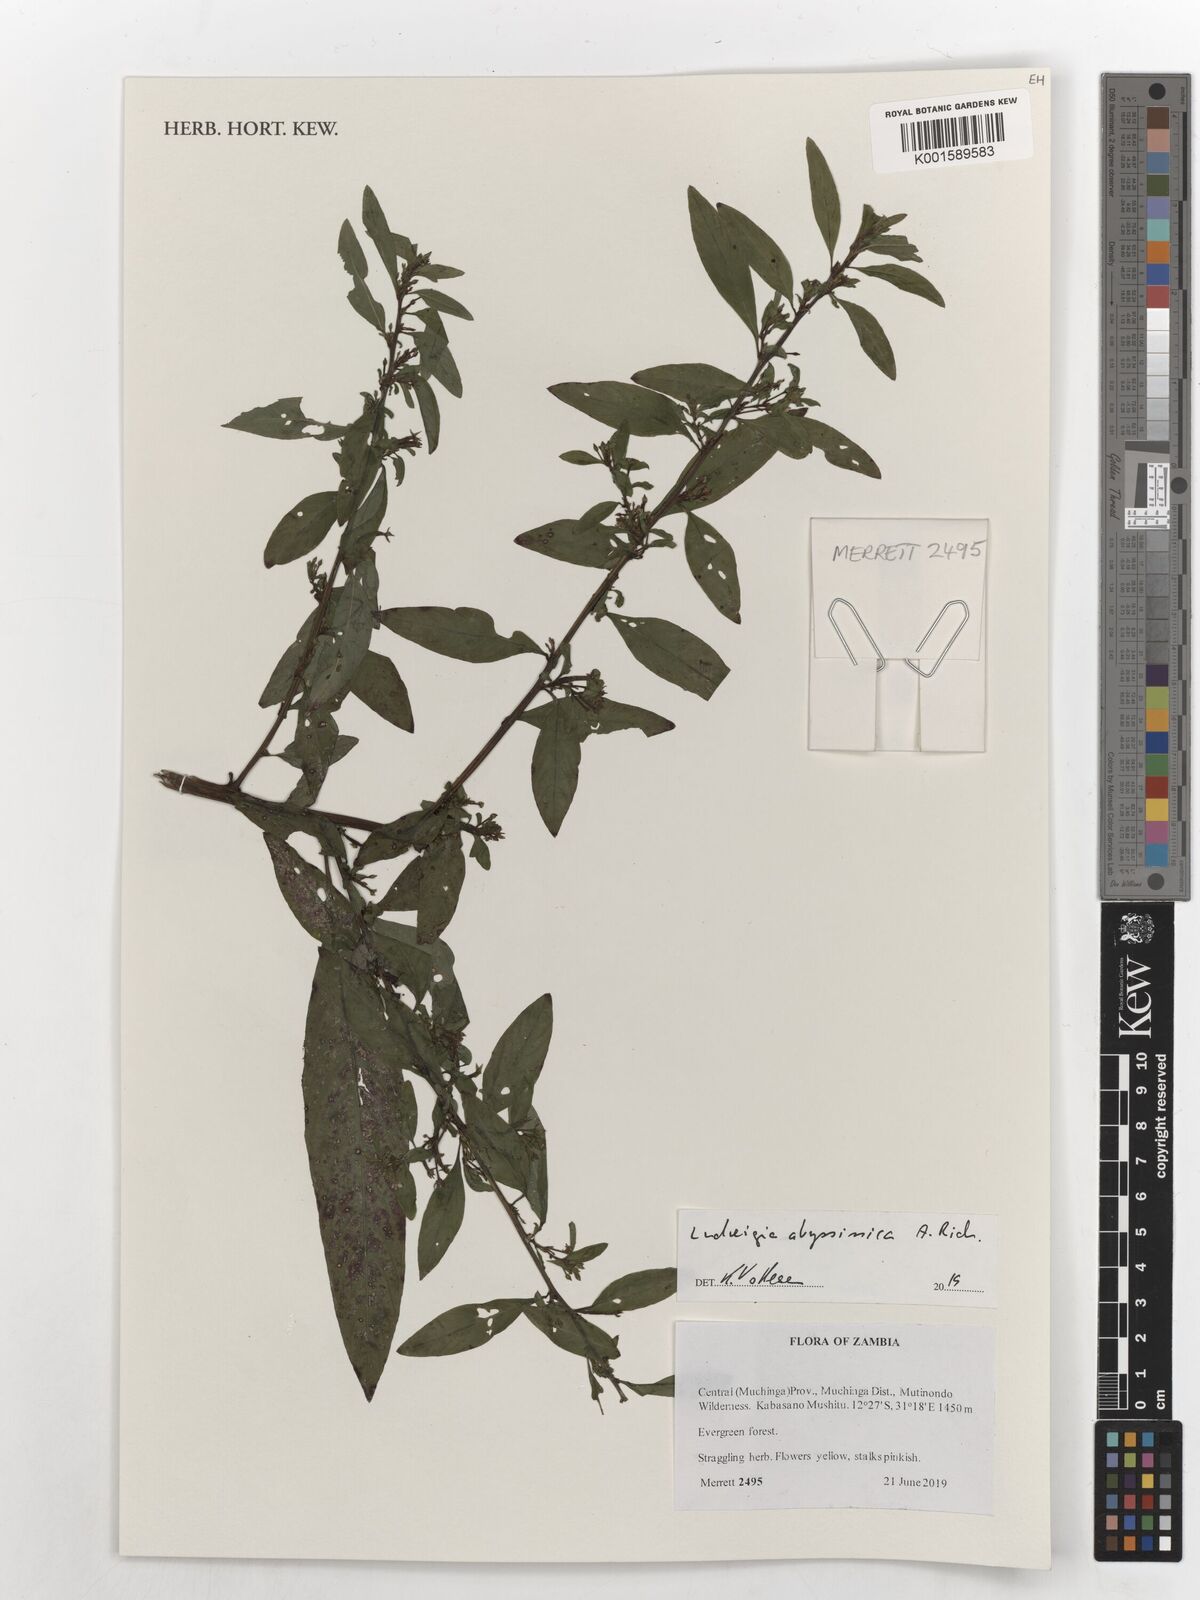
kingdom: Plantae
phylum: Tracheophyta
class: Magnoliopsida
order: Myrtales
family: Onagraceae
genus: Ludwigia
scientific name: Ludwigia abyssinica
